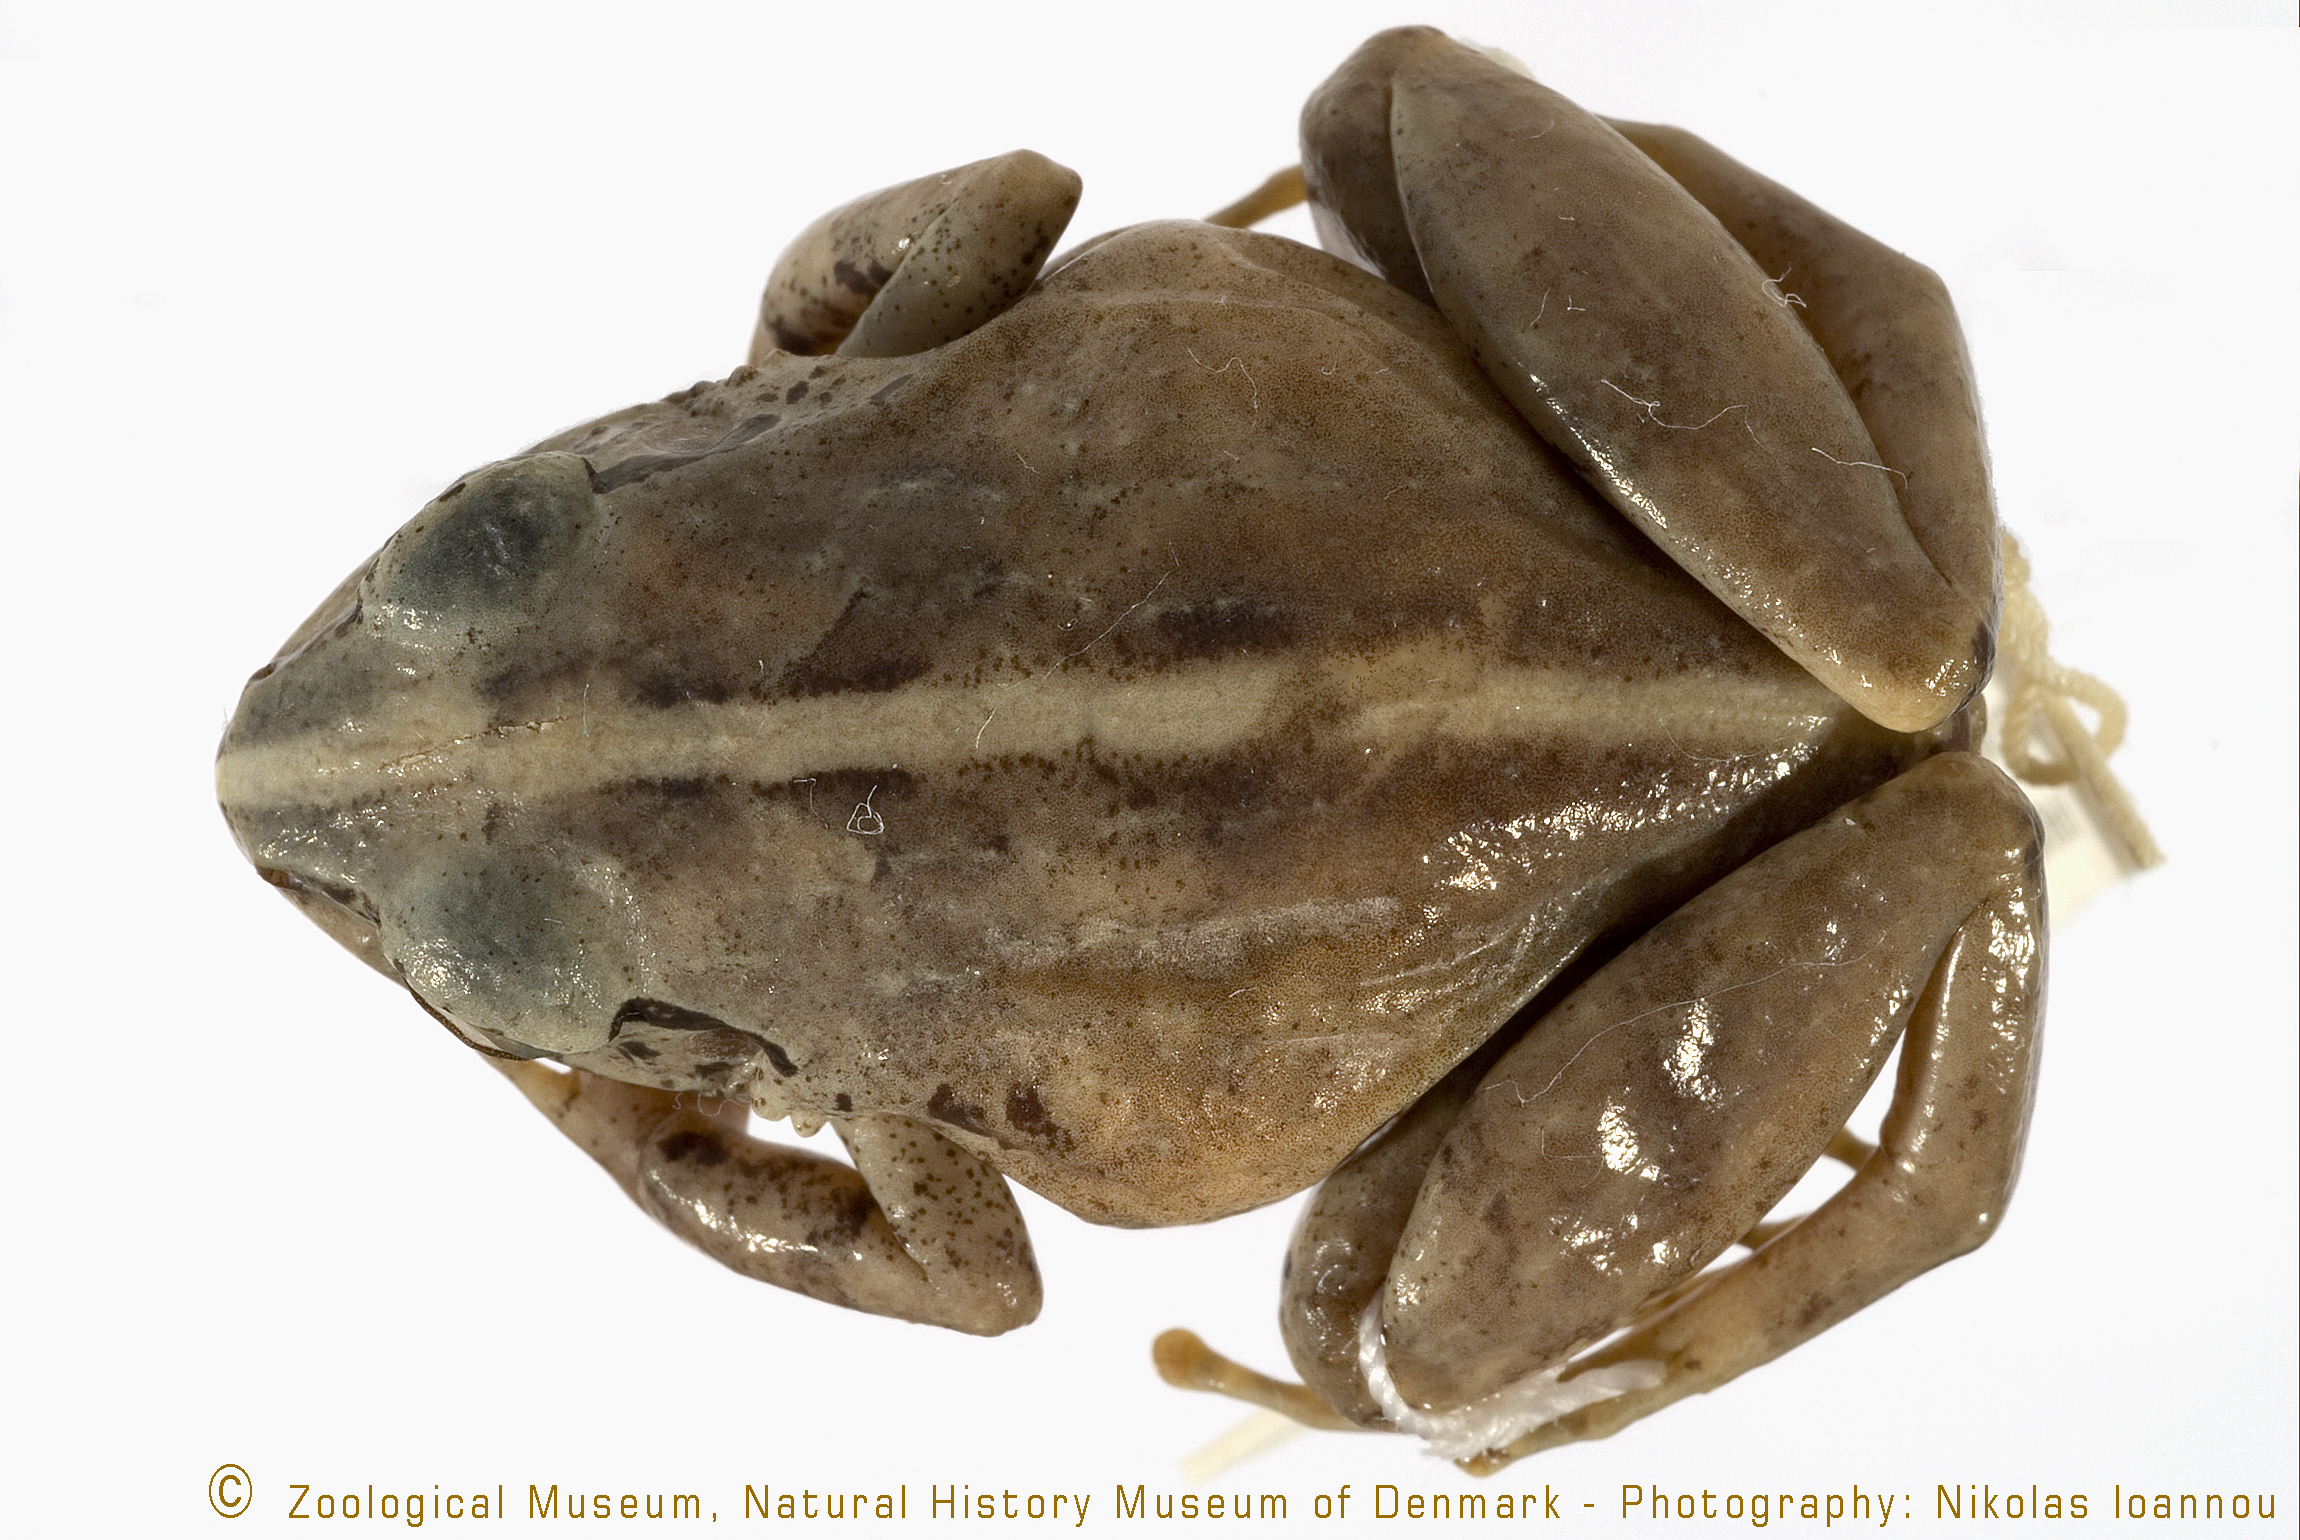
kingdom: Animalia
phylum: Chordata
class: Amphibia
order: Anura
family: Arthroleptidae
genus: Arthroleptis
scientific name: Arthroleptis reichei
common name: Poroto mountains screeching frog
